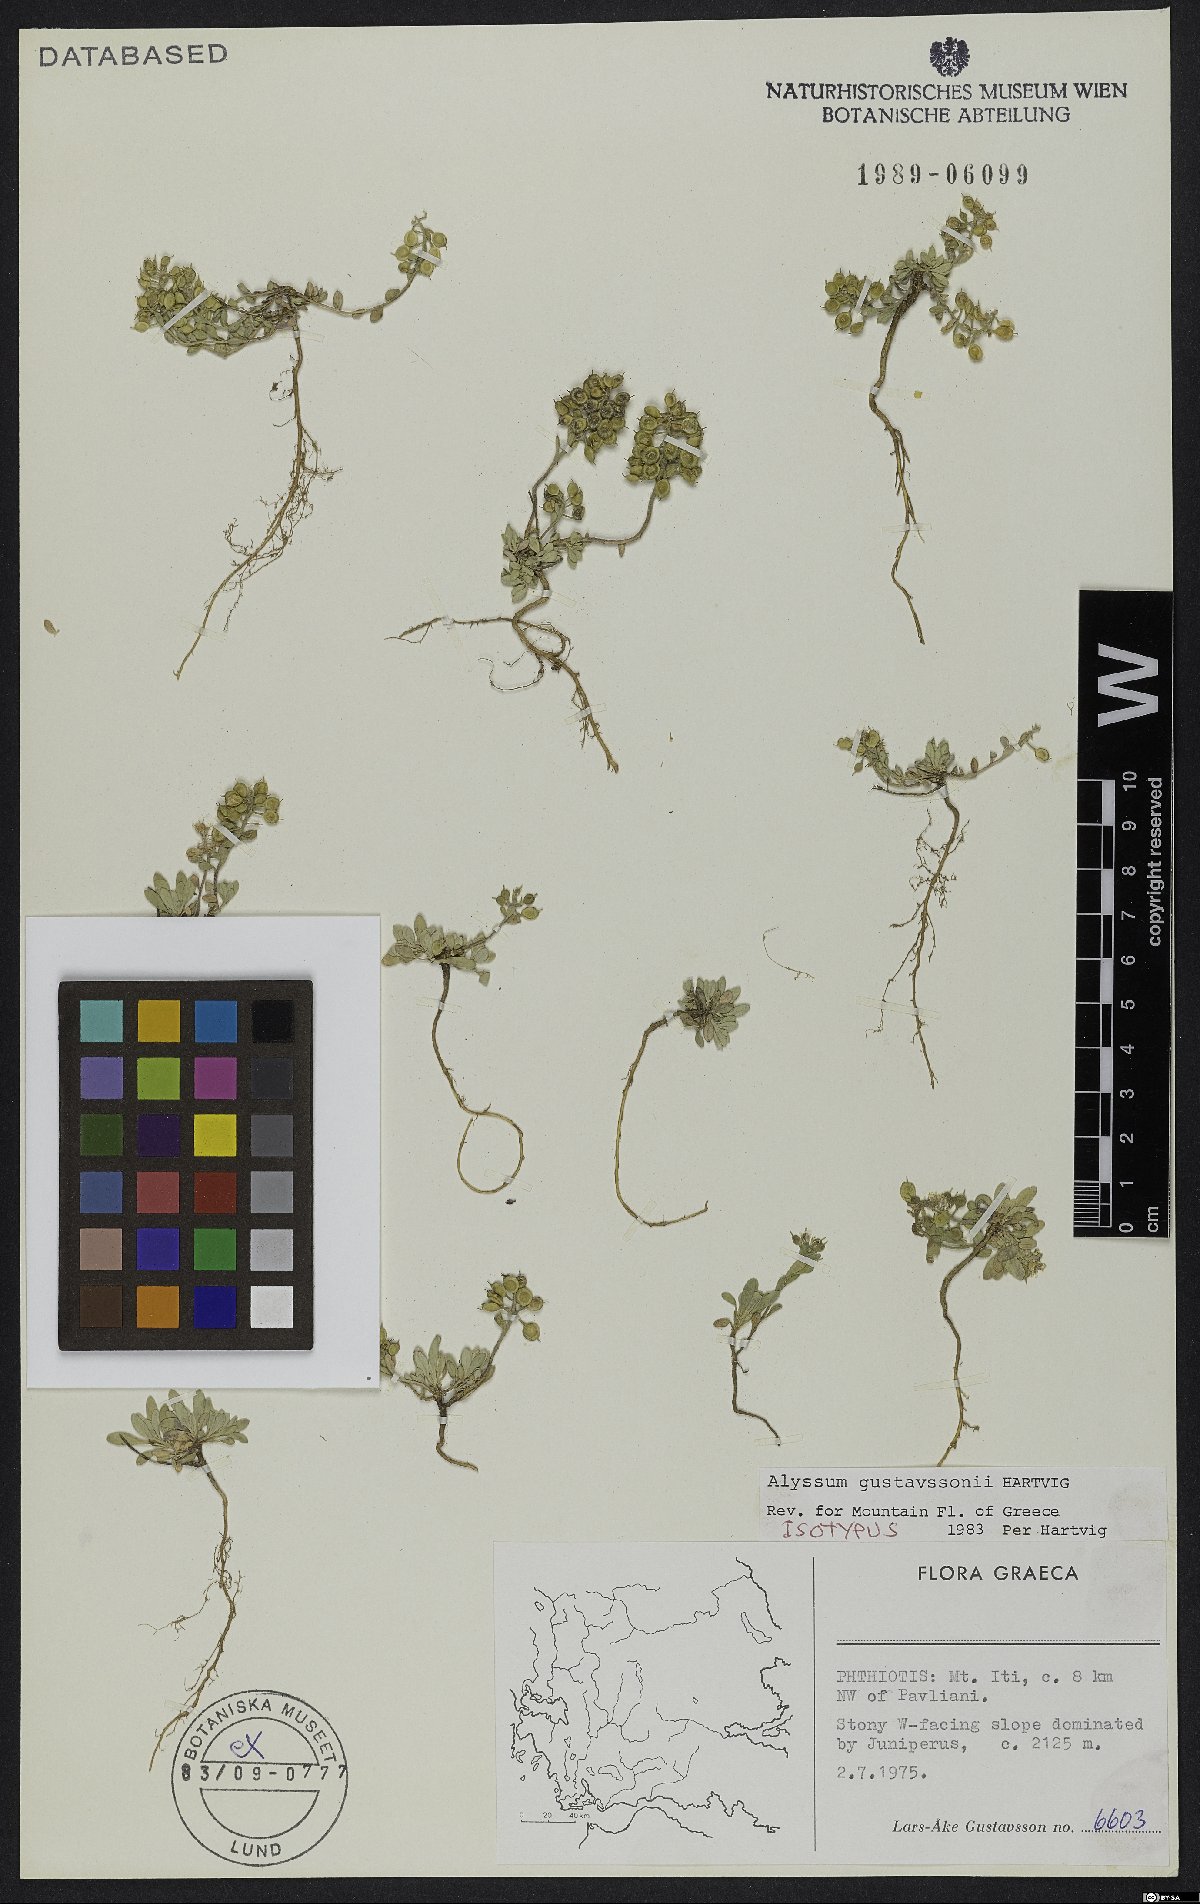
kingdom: Plantae
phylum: Tracheophyta
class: Magnoliopsida
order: Brassicales
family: Brassicaceae
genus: Alyssum
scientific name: Alyssum gustavssonii
